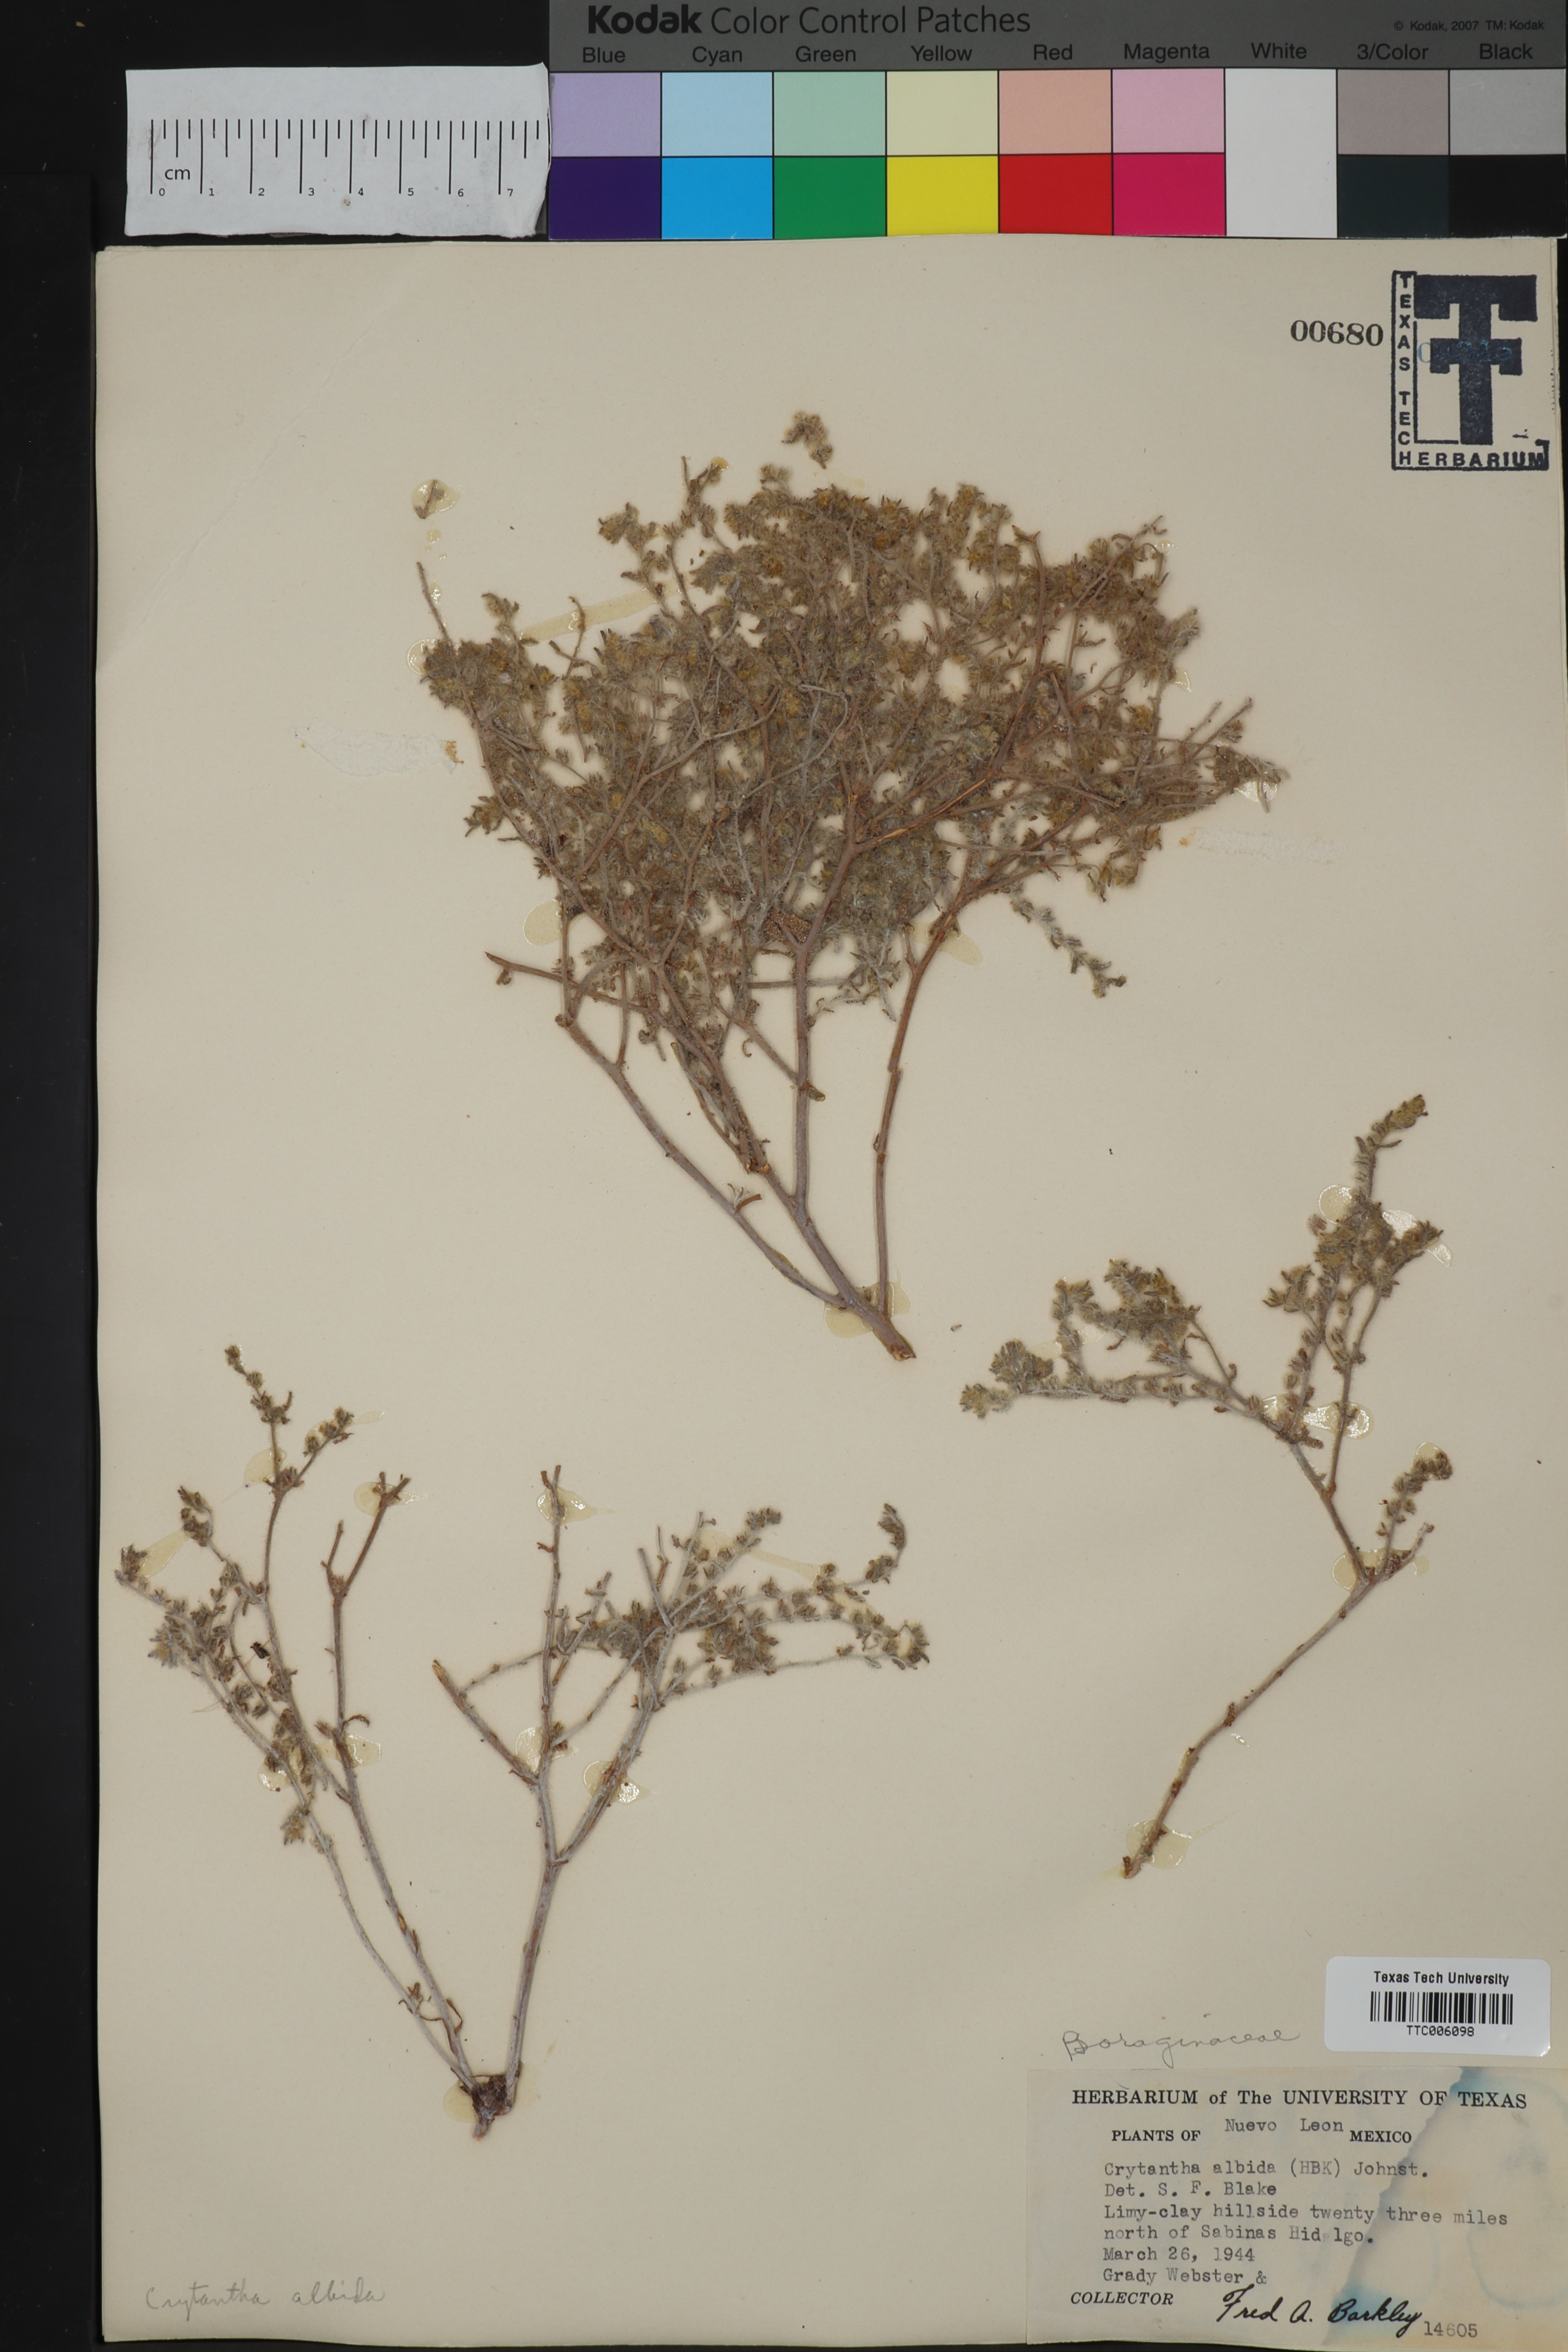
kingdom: Plantae
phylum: Tracheophyta
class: Magnoliopsida
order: Boraginales
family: Boraginaceae
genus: Johnstonella
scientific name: Johnstonella albida
